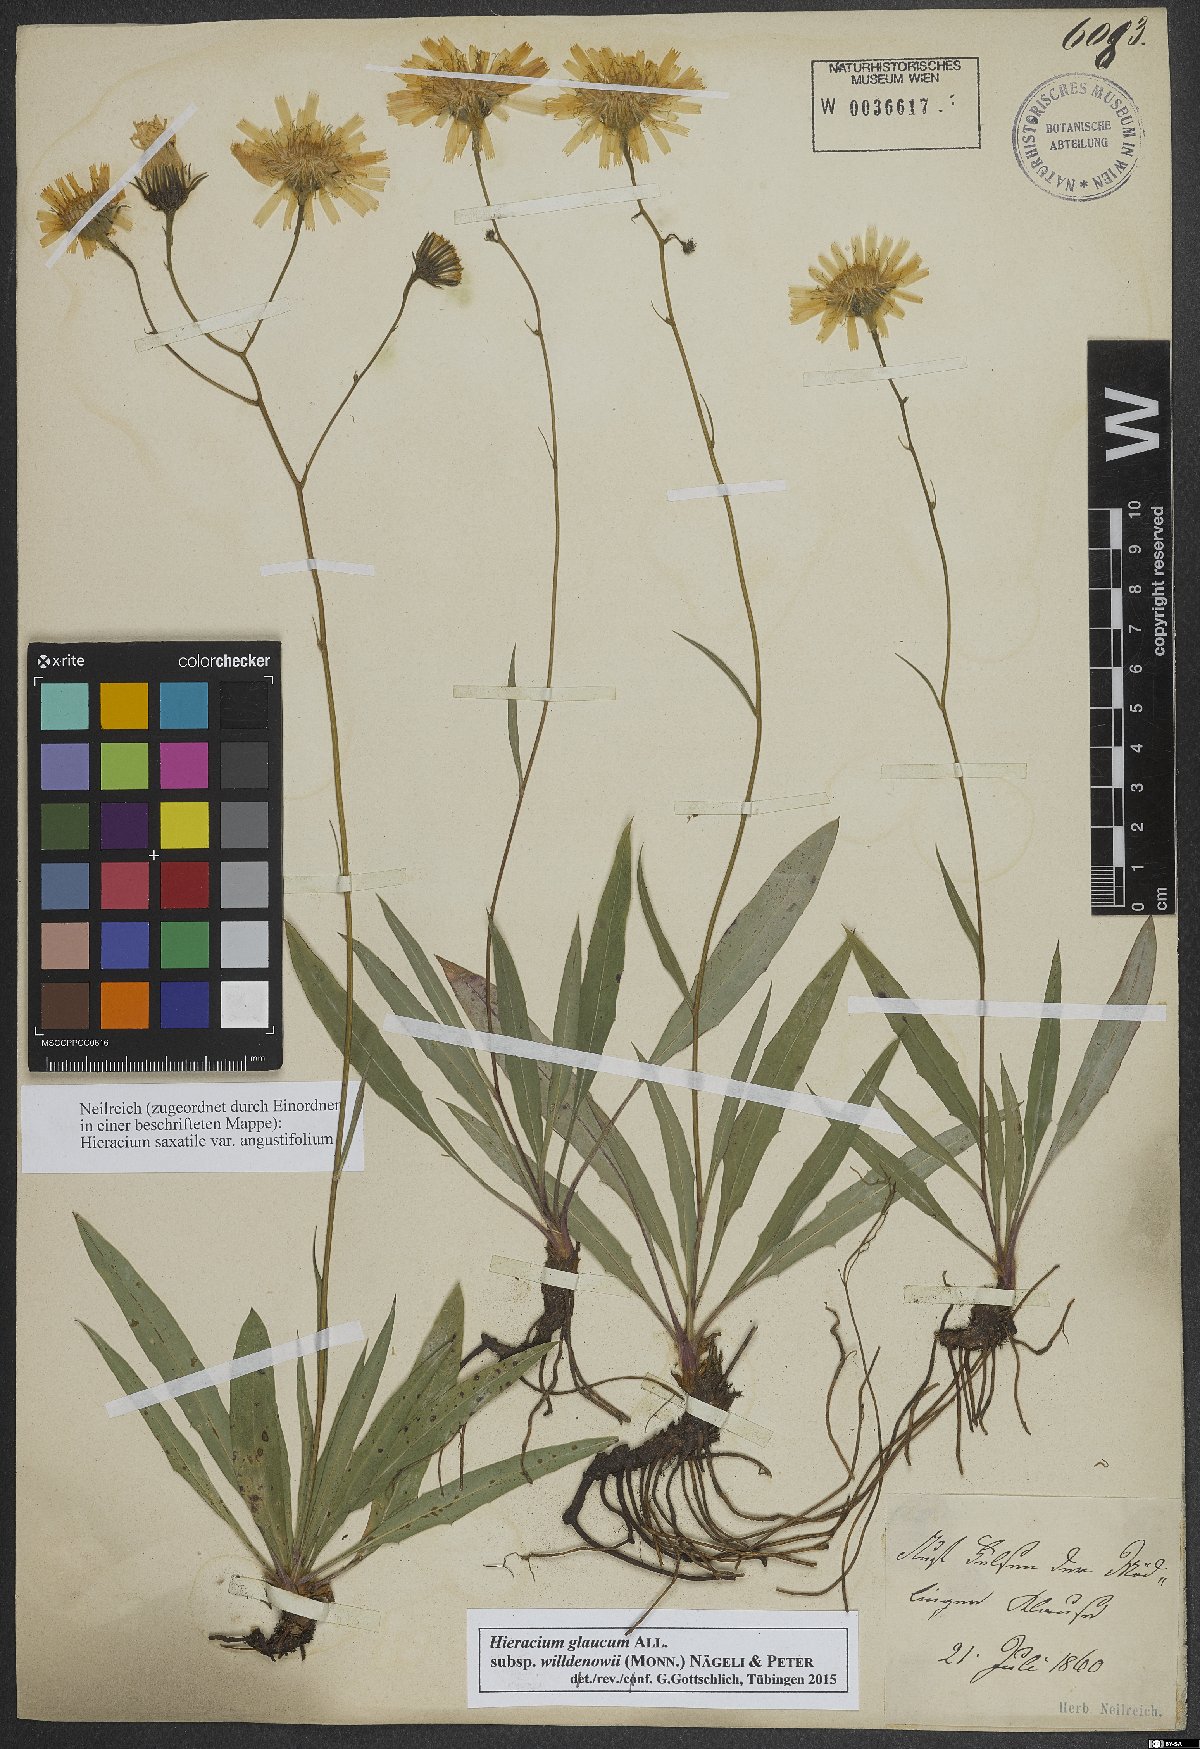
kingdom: Plantae
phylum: Tracheophyta
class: Magnoliopsida
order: Asterales
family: Asteraceae
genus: Hieracium
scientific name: Hieracium glaucum
